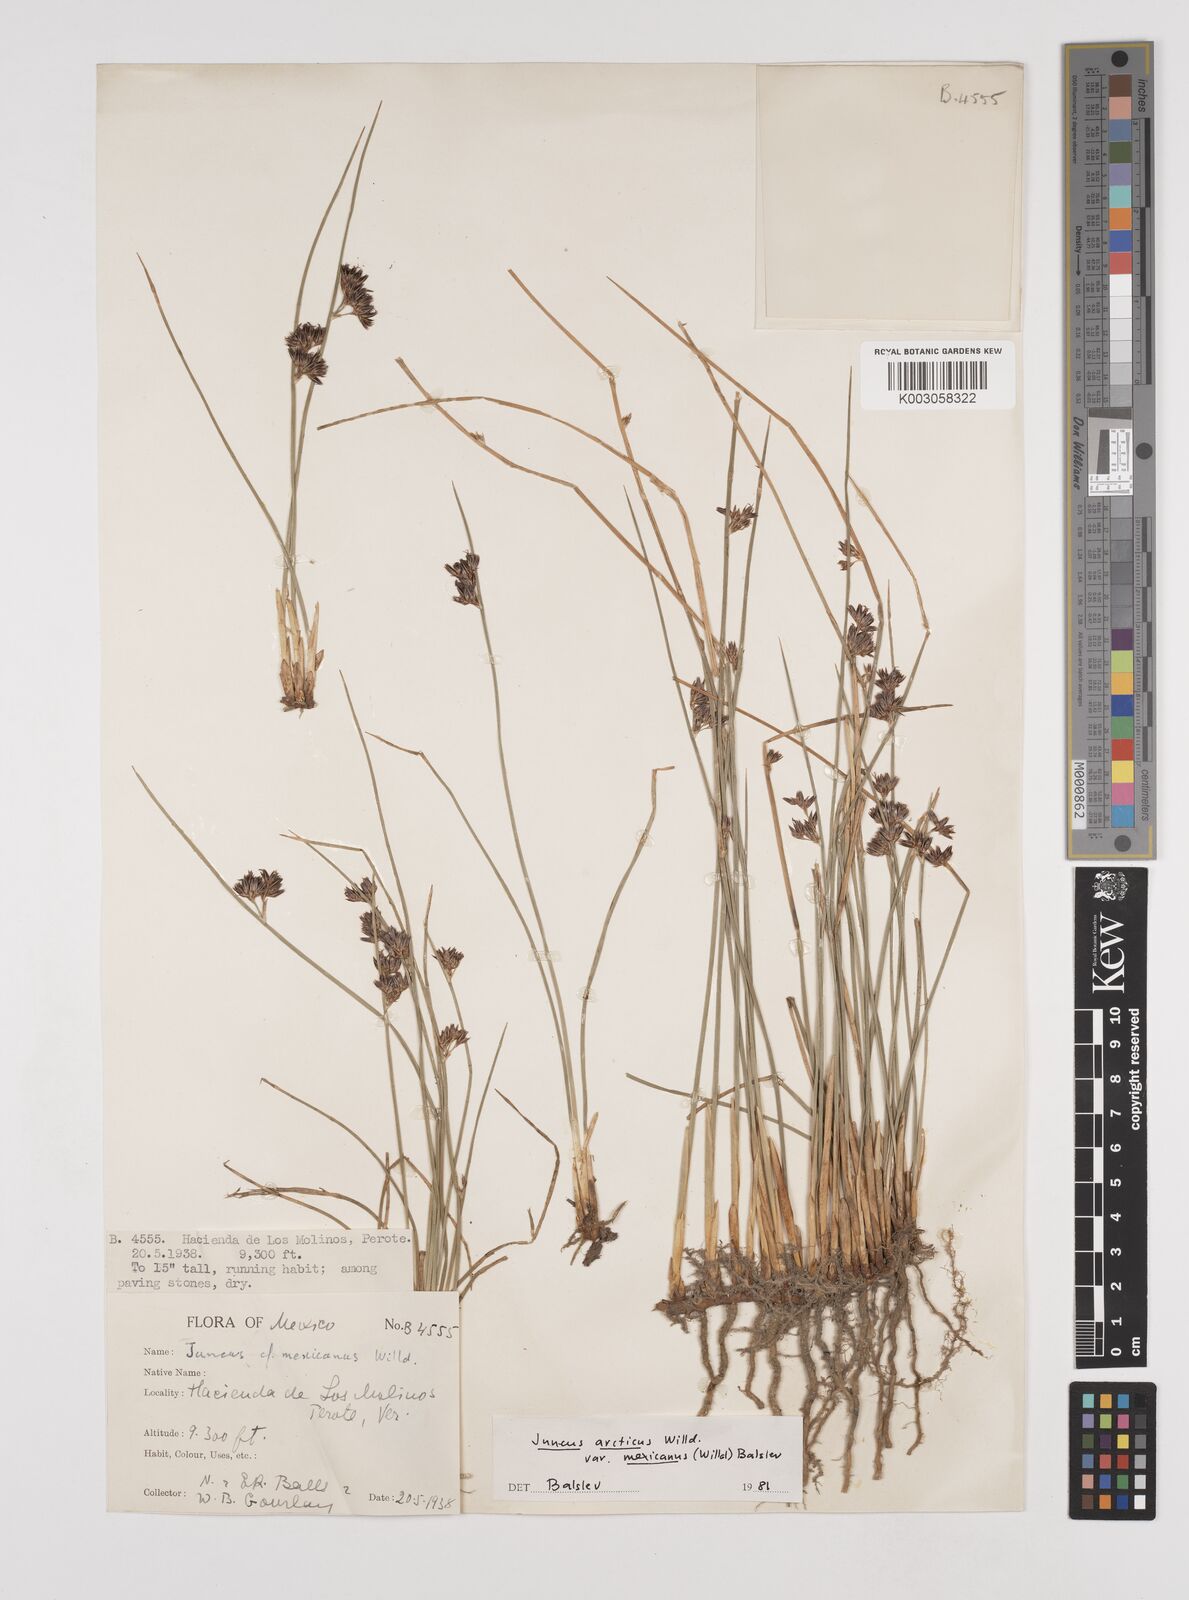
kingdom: Plantae
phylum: Tracheophyta
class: Liliopsida
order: Poales
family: Juncaceae
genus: Juncus
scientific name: Juncus arcticus
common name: Arctic rush
